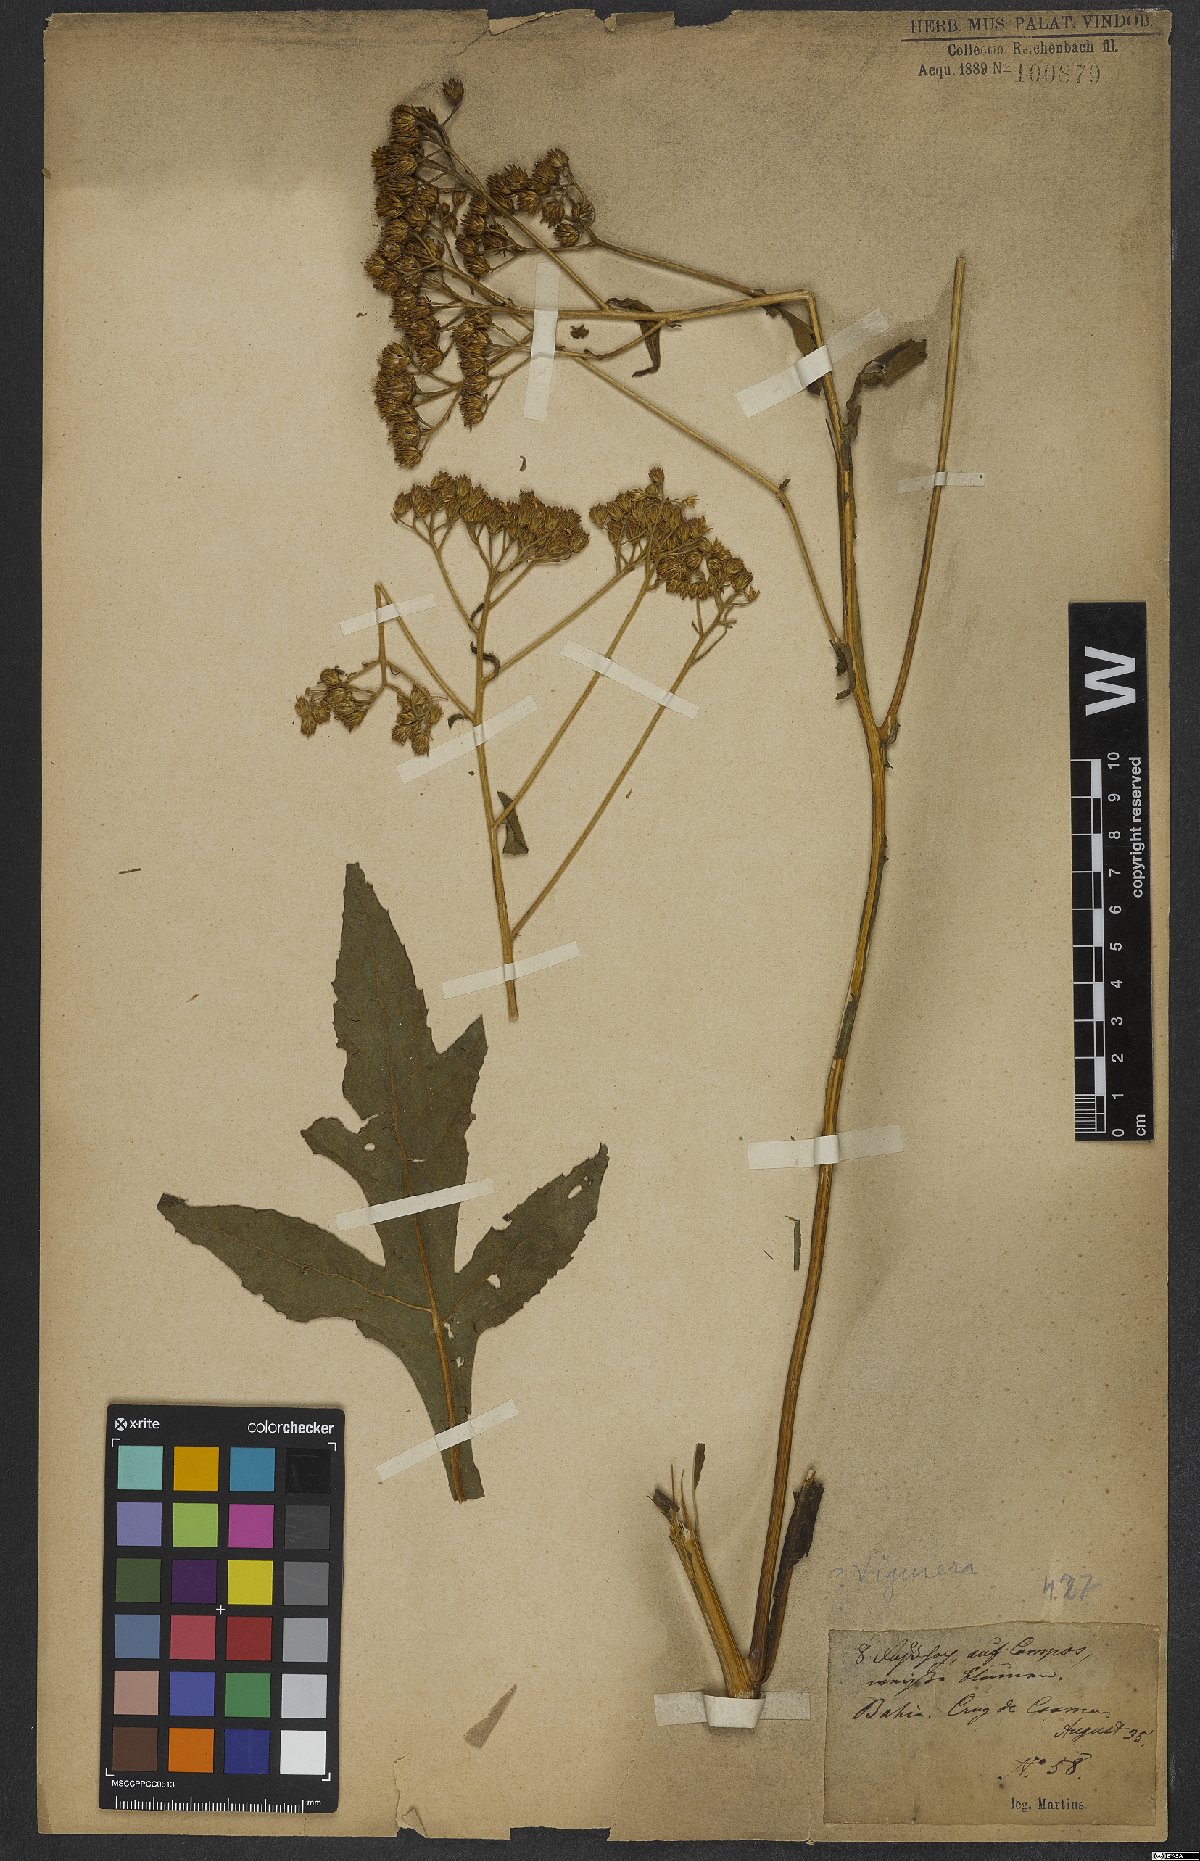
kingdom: Plantae
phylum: Tracheophyta
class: Magnoliopsida
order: Asterales
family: Asteraceae
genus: Viguiera
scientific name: Viguiera
